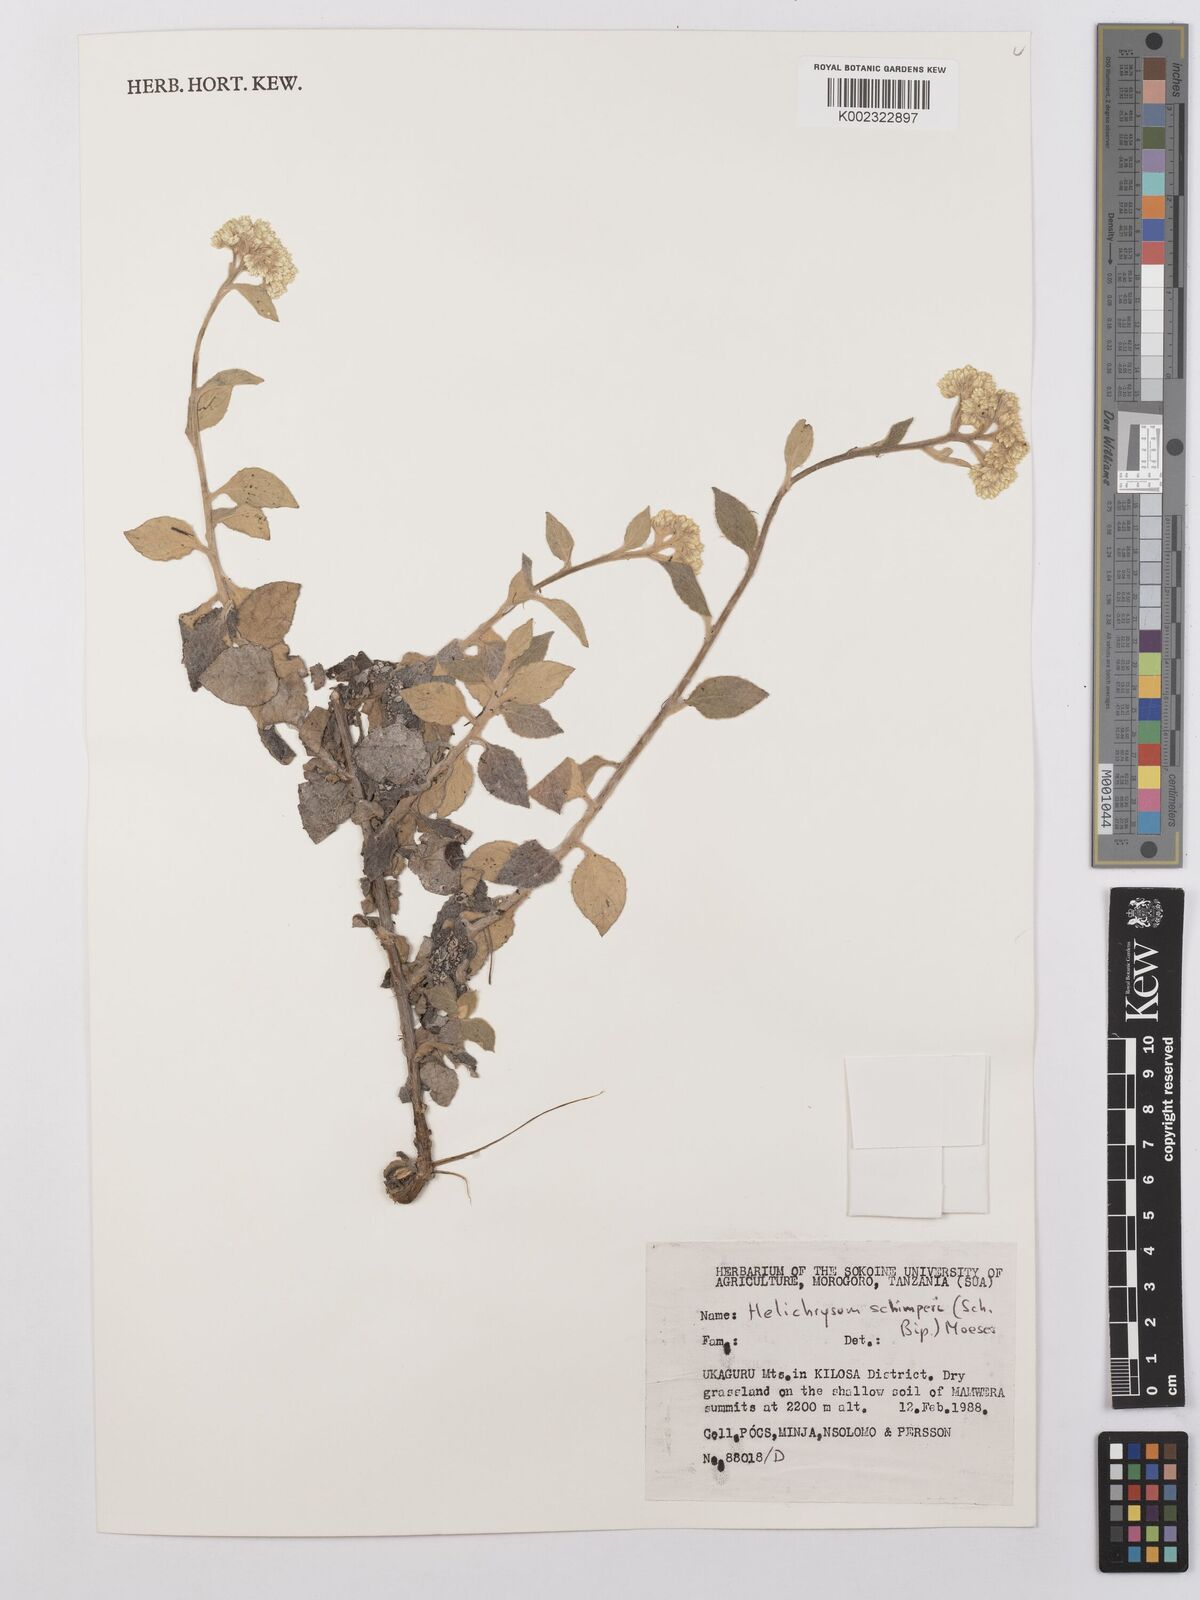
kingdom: Plantae
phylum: Tracheophyta
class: Magnoliopsida
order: Asterales
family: Asteraceae
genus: Helichrysum
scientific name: Helichrysum schimperi
